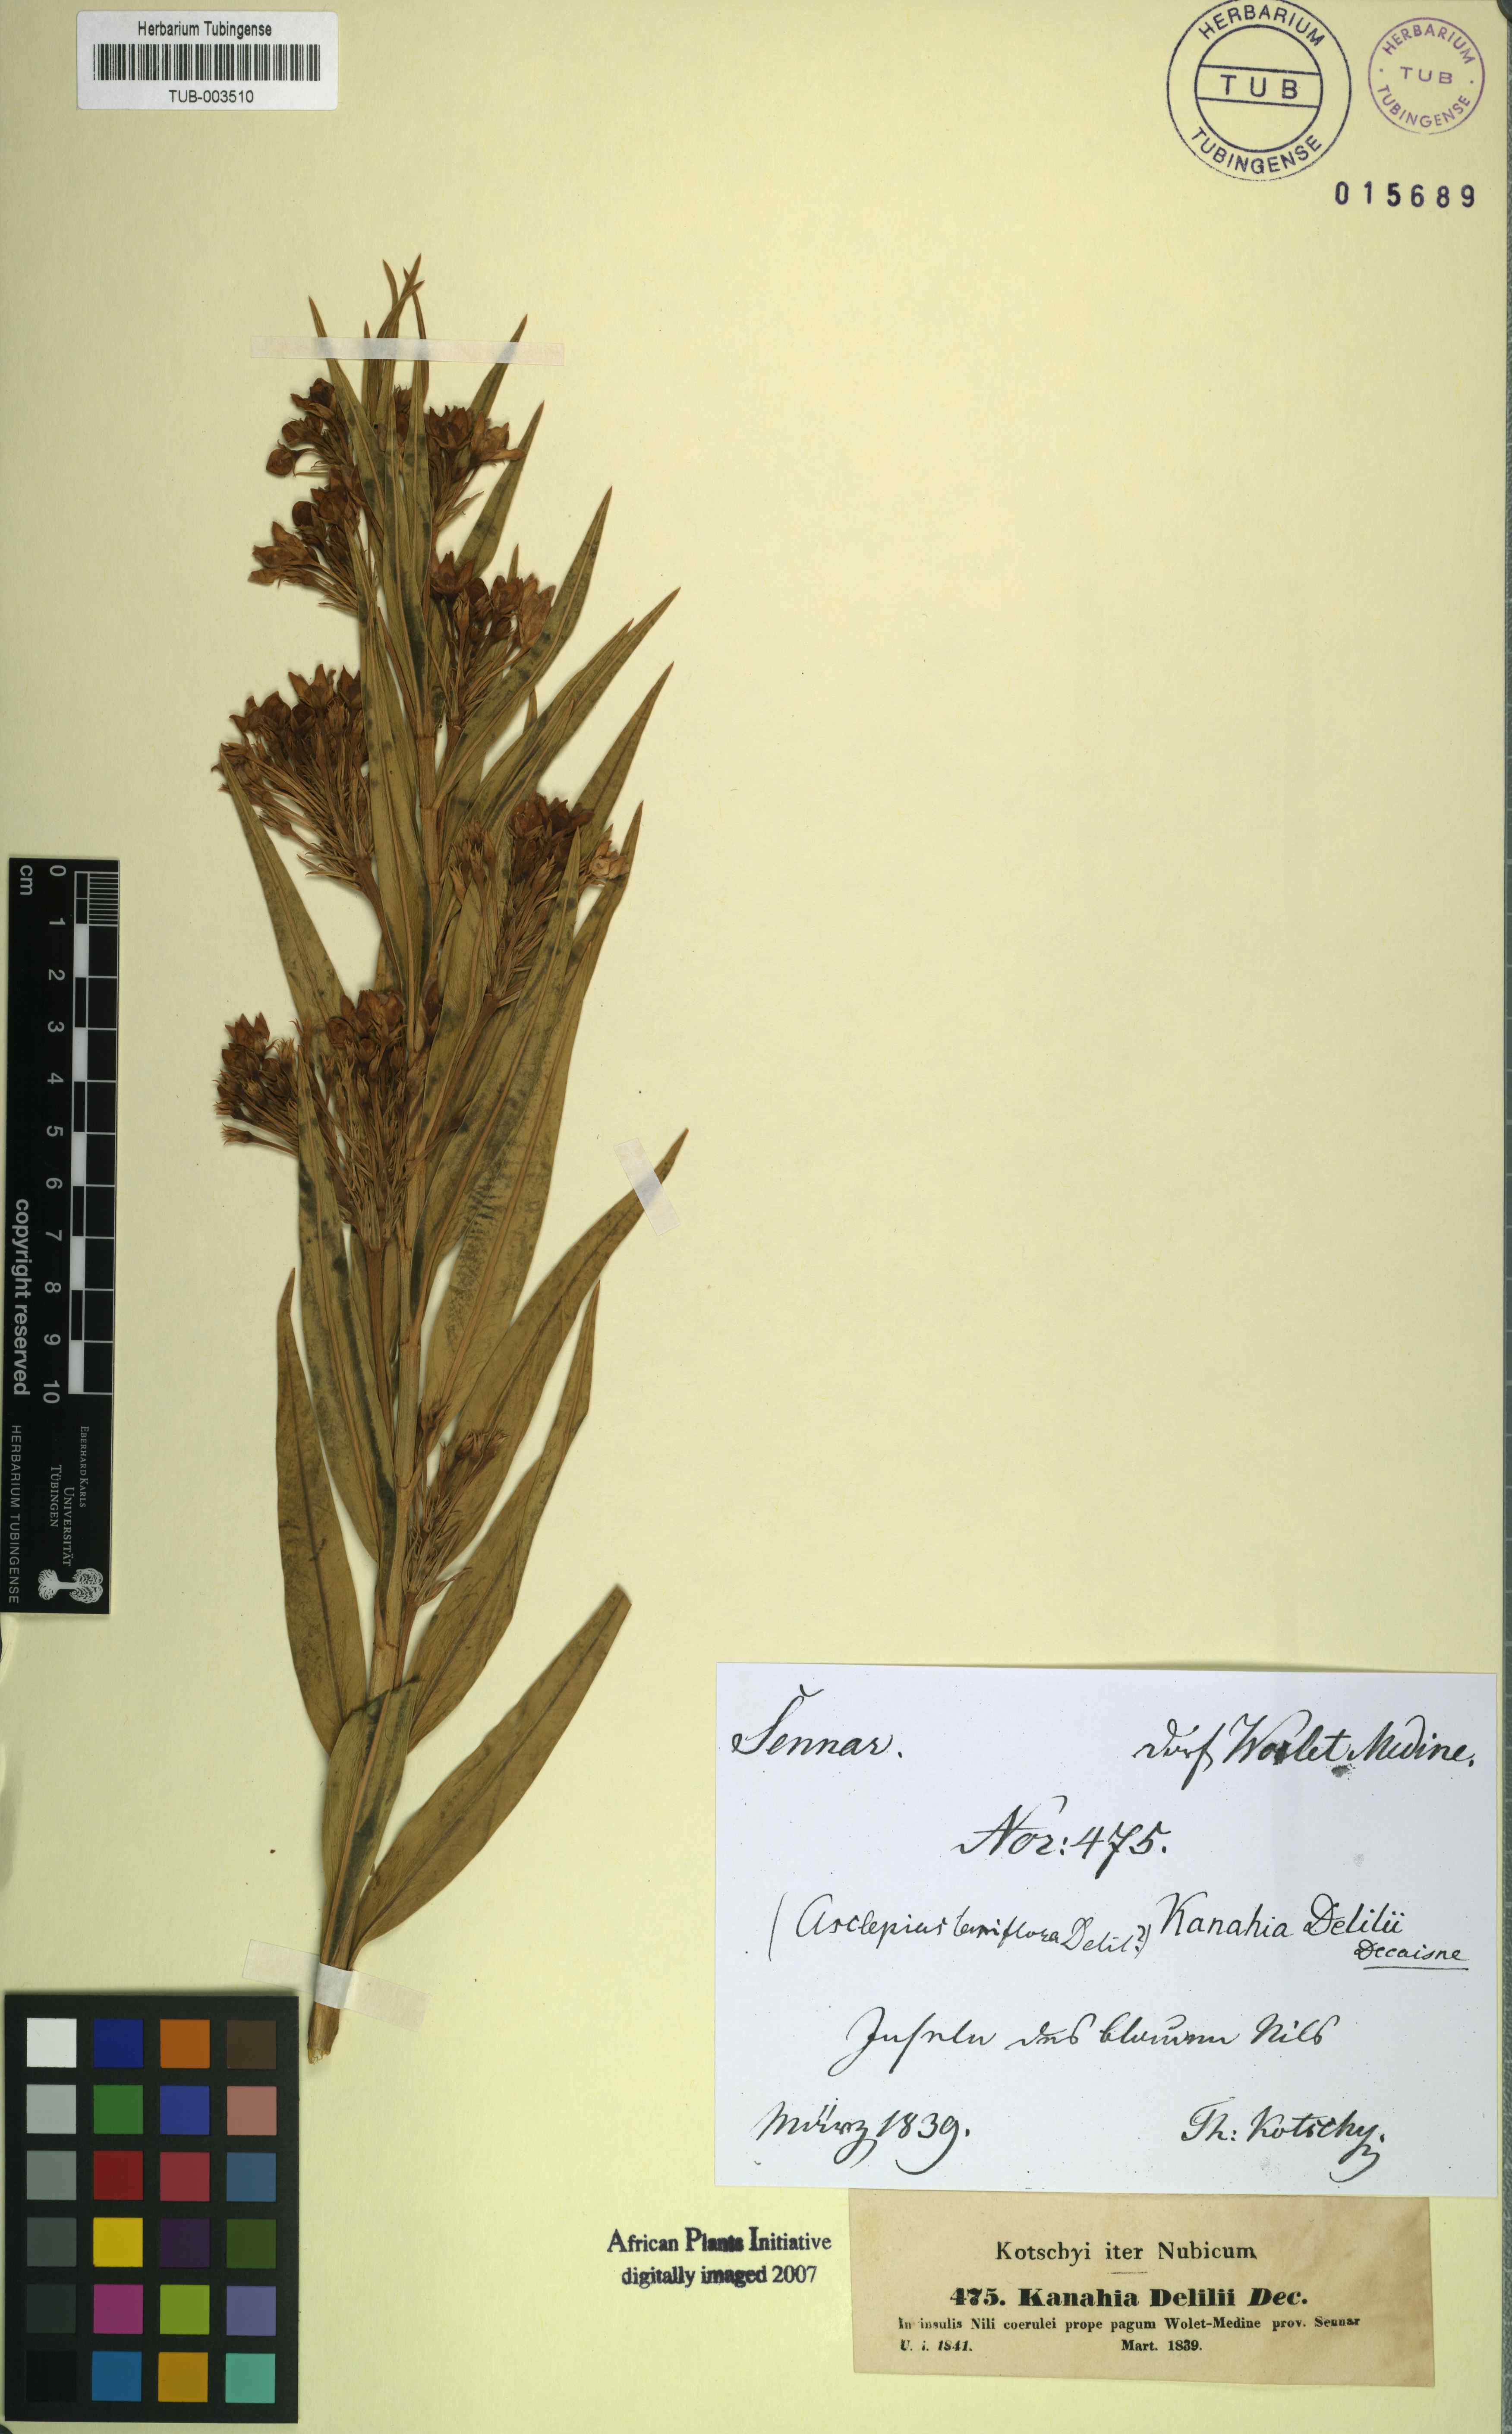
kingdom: Plantae
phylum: Tracheophyta
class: Magnoliopsida
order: Gentianales
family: Apocynaceae
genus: Kanahia
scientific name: Kanahia laniflora
